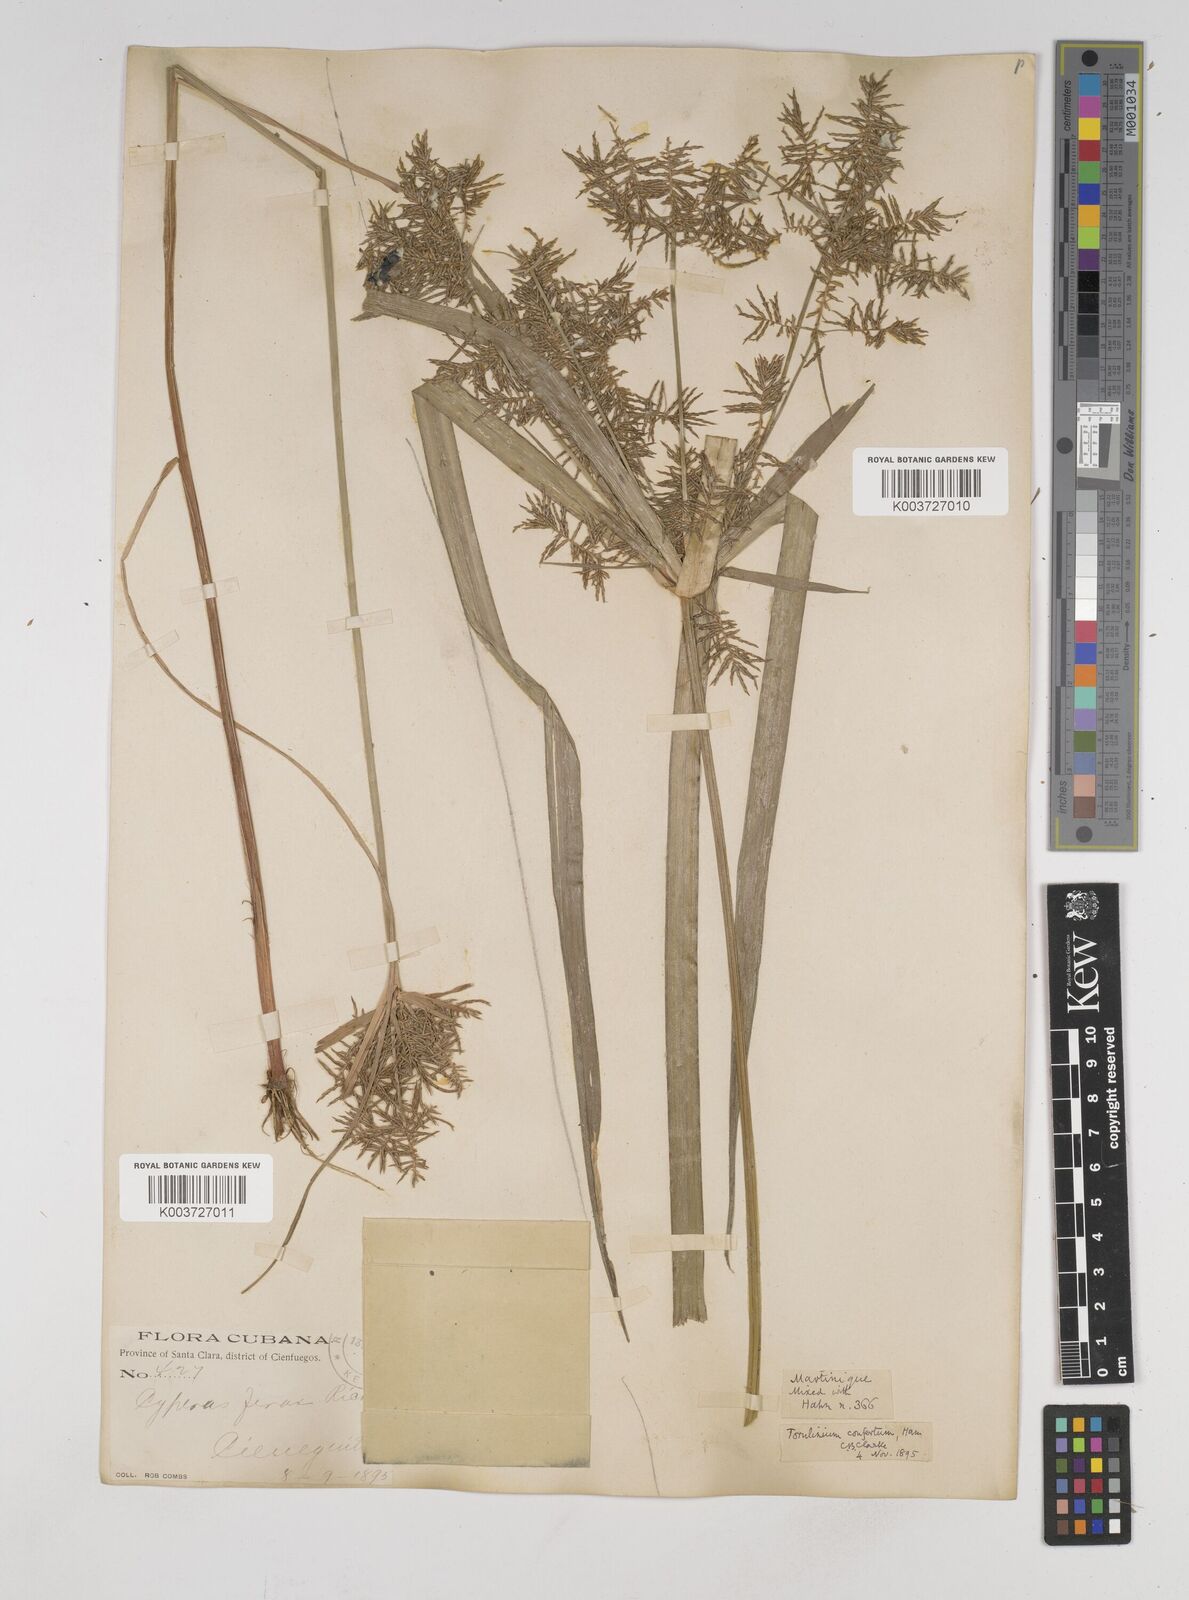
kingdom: Plantae
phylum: Tracheophyta
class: Liliopsida
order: Poales
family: Cyperaceae
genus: Cyperus
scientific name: Cyperus odoratus
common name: Fragrant flatsedge
